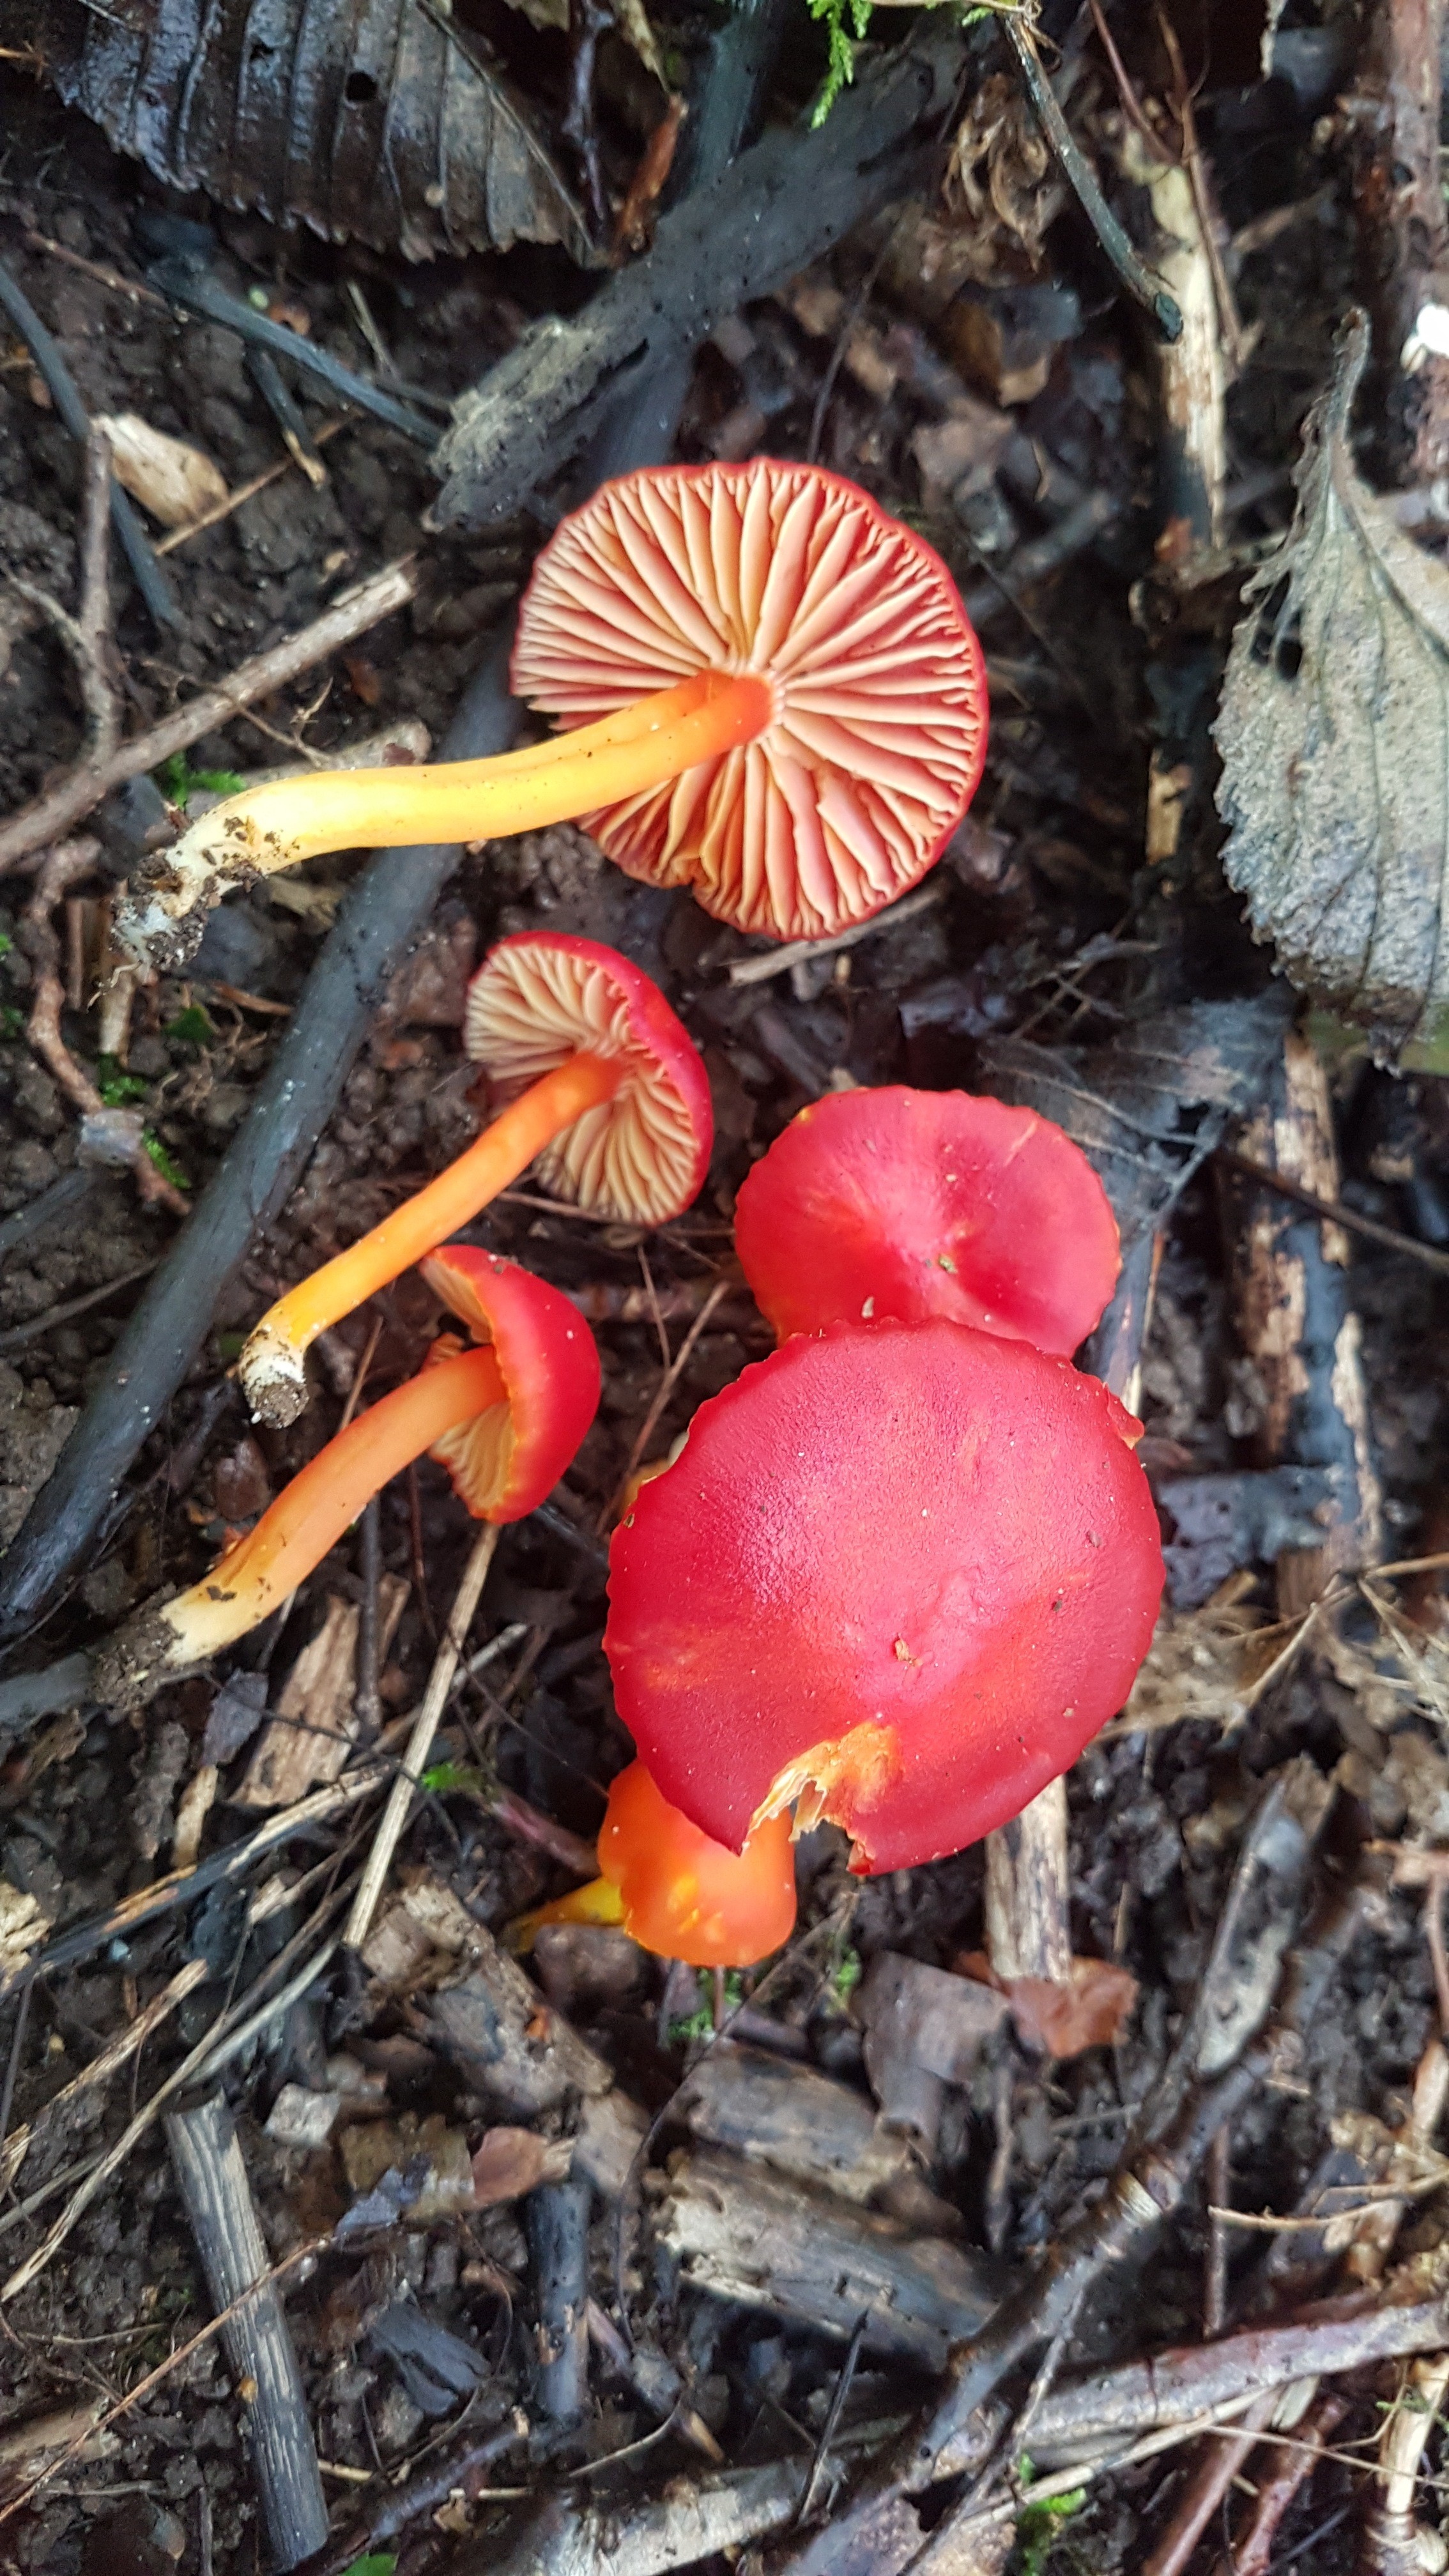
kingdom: Fungi
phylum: Basidiomycota
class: Agaricomycetes
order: Agaricales
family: Hygrophoraceae
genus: Hygrocybe
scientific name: Hygrocybe coccinea
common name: cinnober-vokshat
